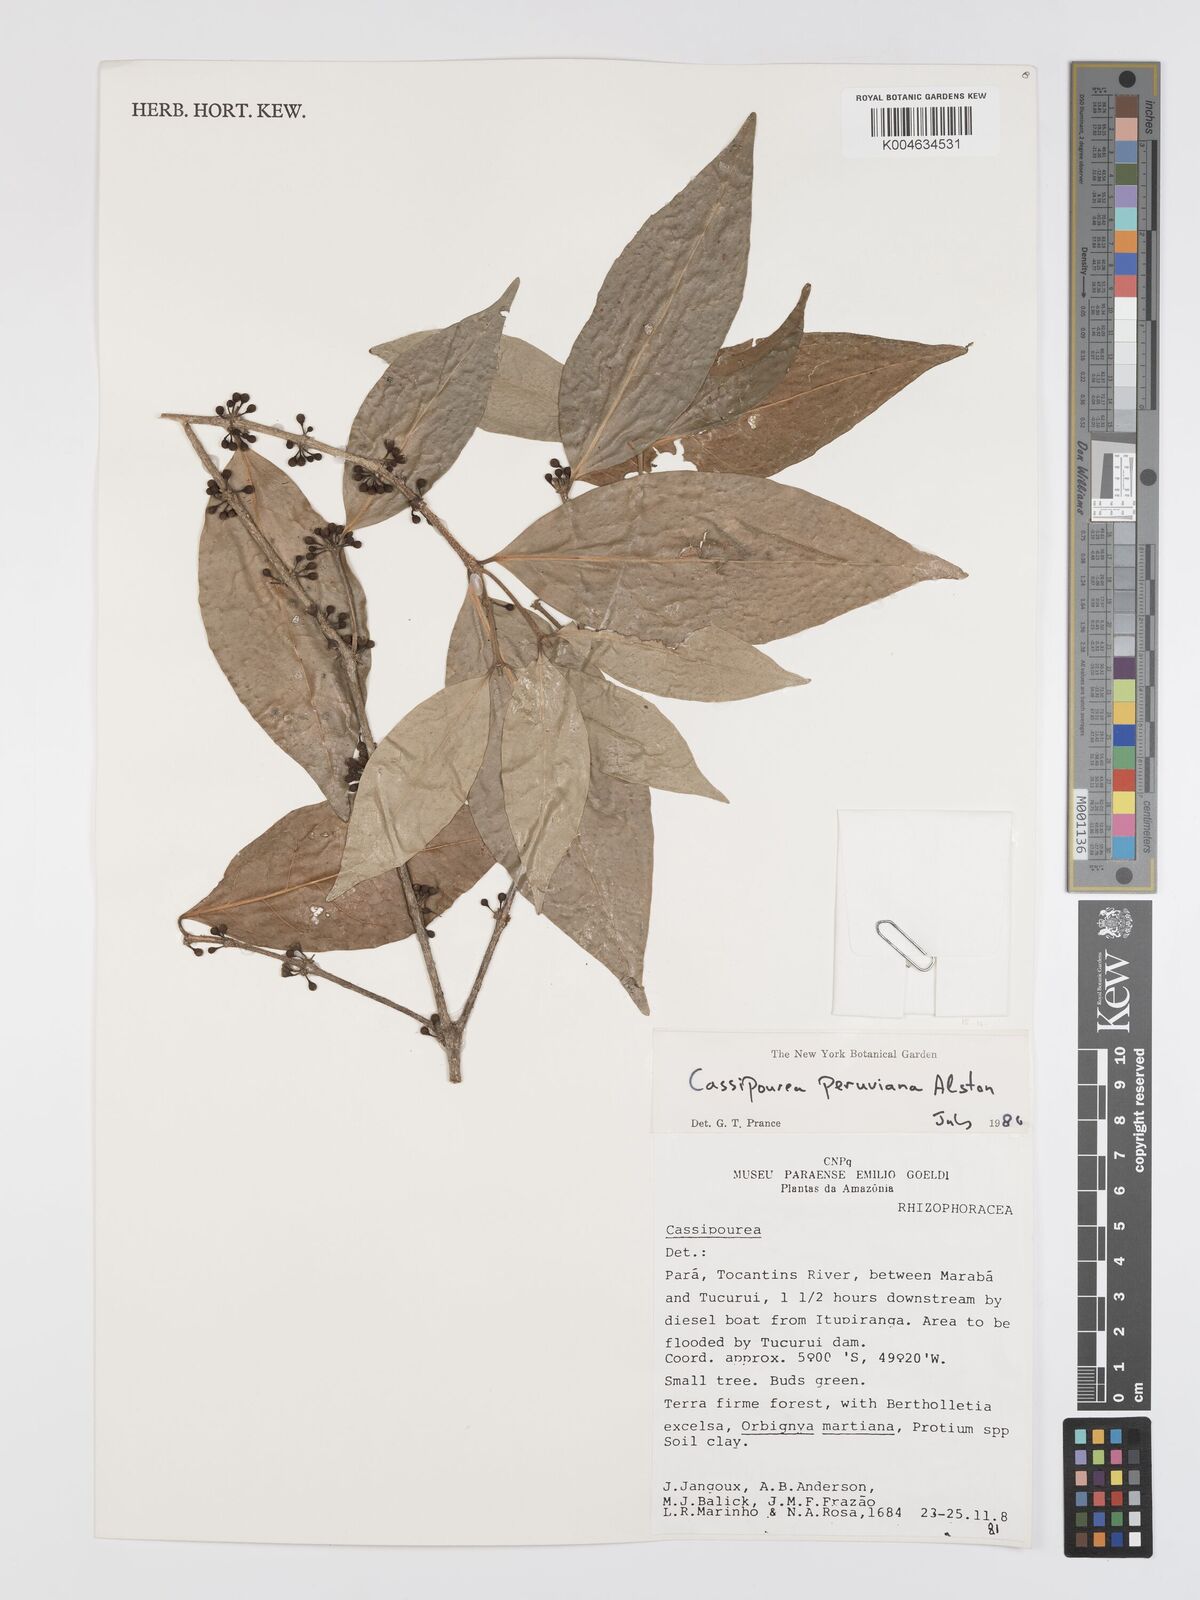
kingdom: Plantae
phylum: Tracheophyta
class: Magnoliopsida
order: Malpighiales
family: Rhizophoraceae
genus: Cassipourea
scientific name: Cassipourea peruviana
